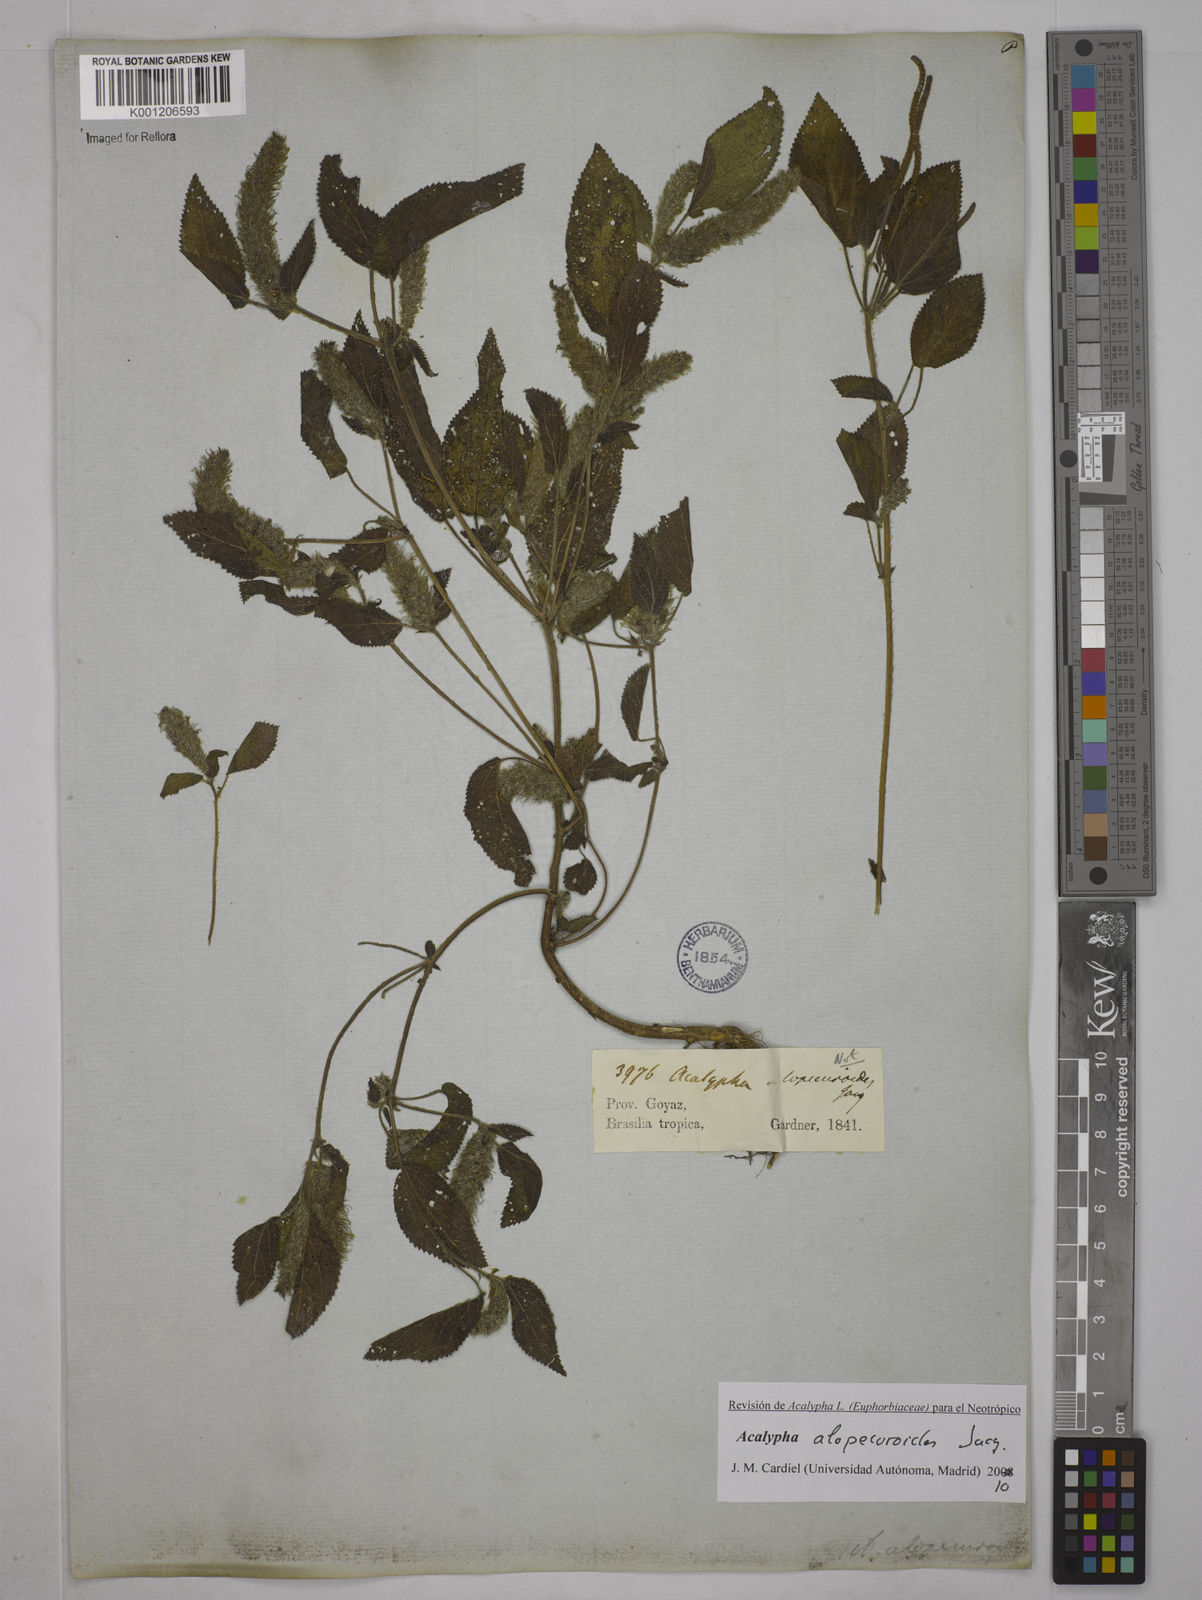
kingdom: Plantae
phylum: Tracheophyta
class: Magnoliopsida
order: Malpighiales
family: Euphorbiaceae
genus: Acalypha
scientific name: Acalypha alopecuroidea
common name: Foxtail copperleaf
